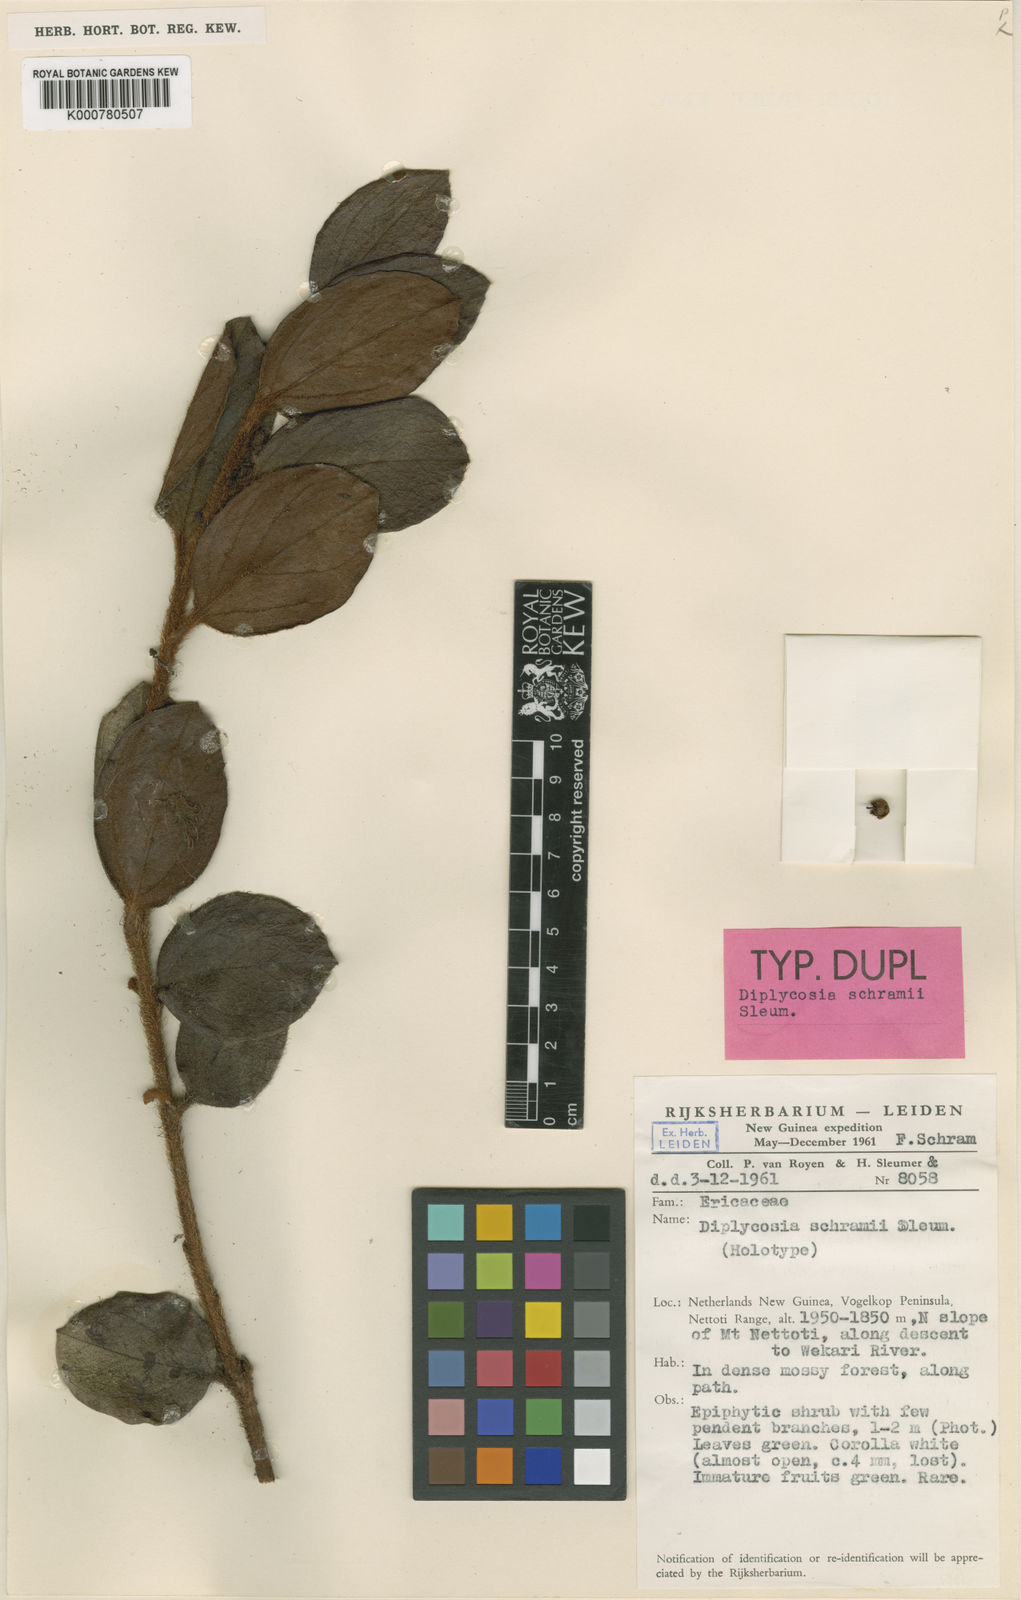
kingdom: Plantae
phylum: Tracheophyta
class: Magnoliopsida
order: Ericales
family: Ericaceae
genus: Gaultheria
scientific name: Gaultheria schramii
